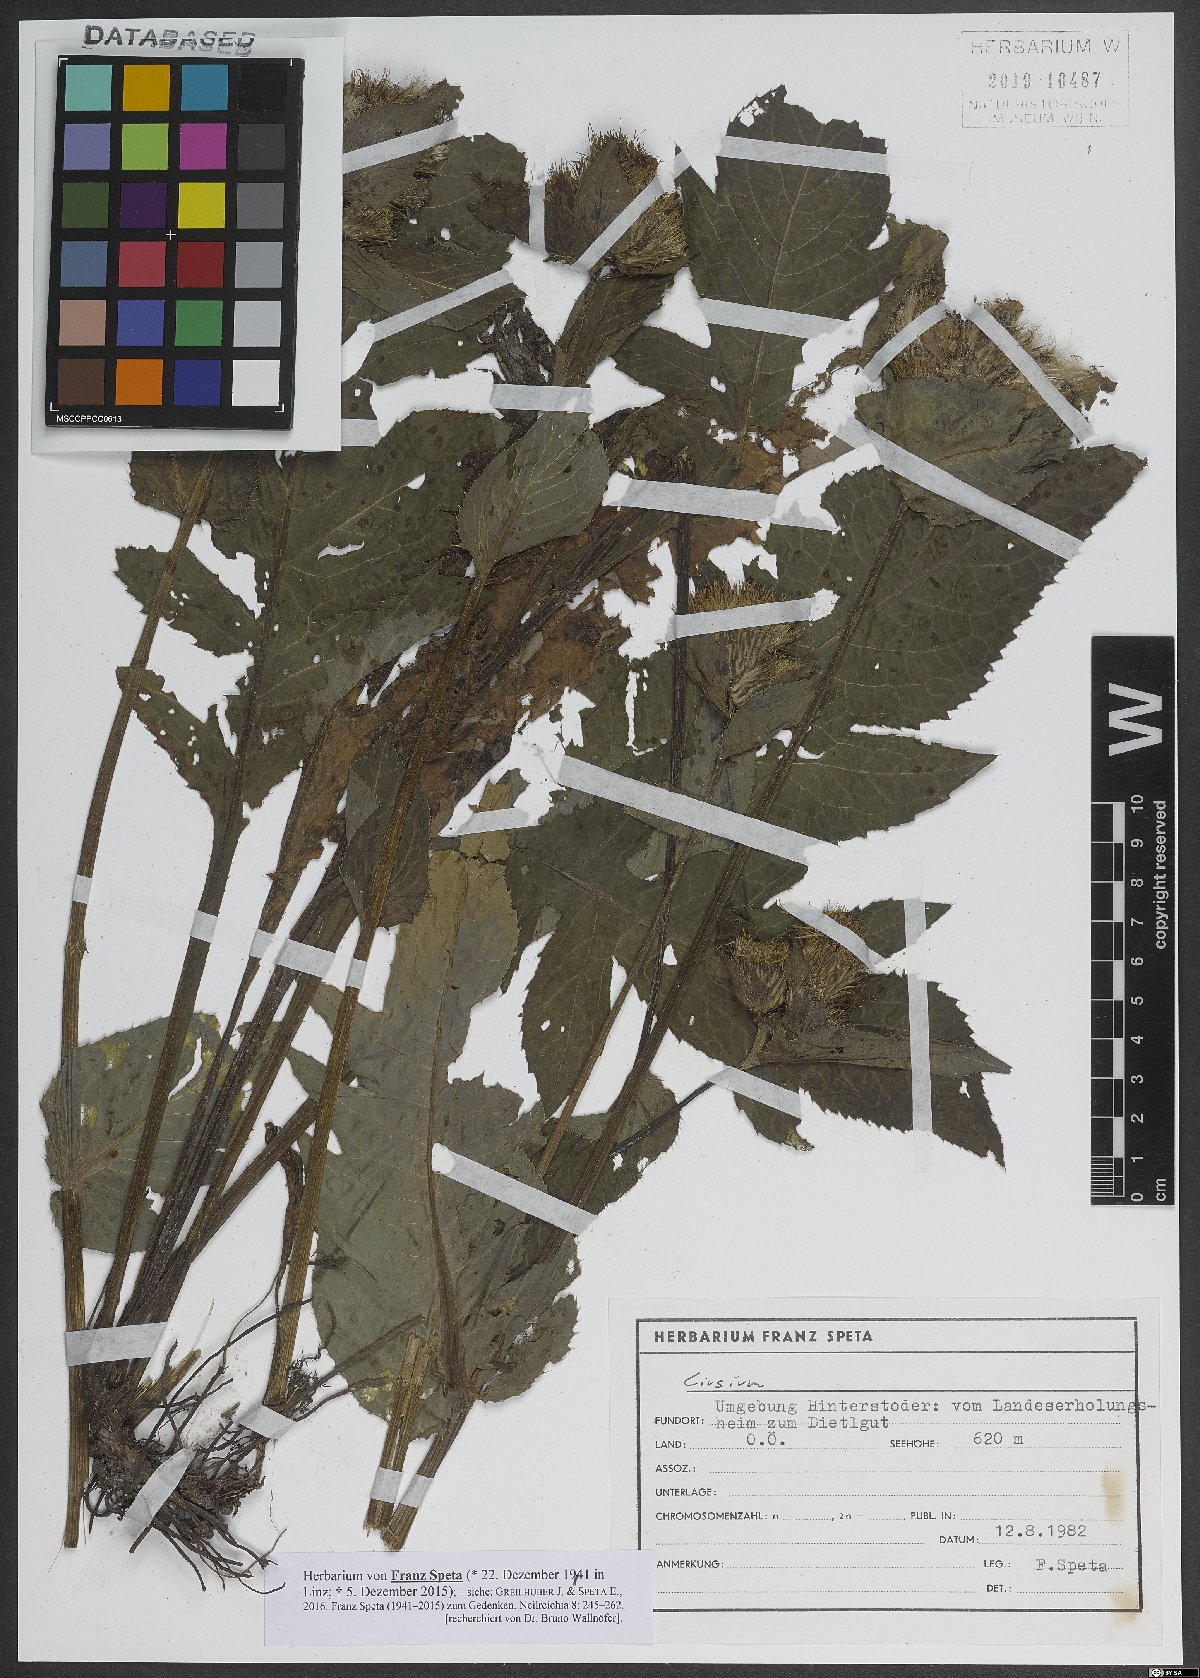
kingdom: Plantae
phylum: Tracheophyta
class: Magnoliopsida
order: Asterales
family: Asteraceae
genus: Cirsium
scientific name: Cirsium
